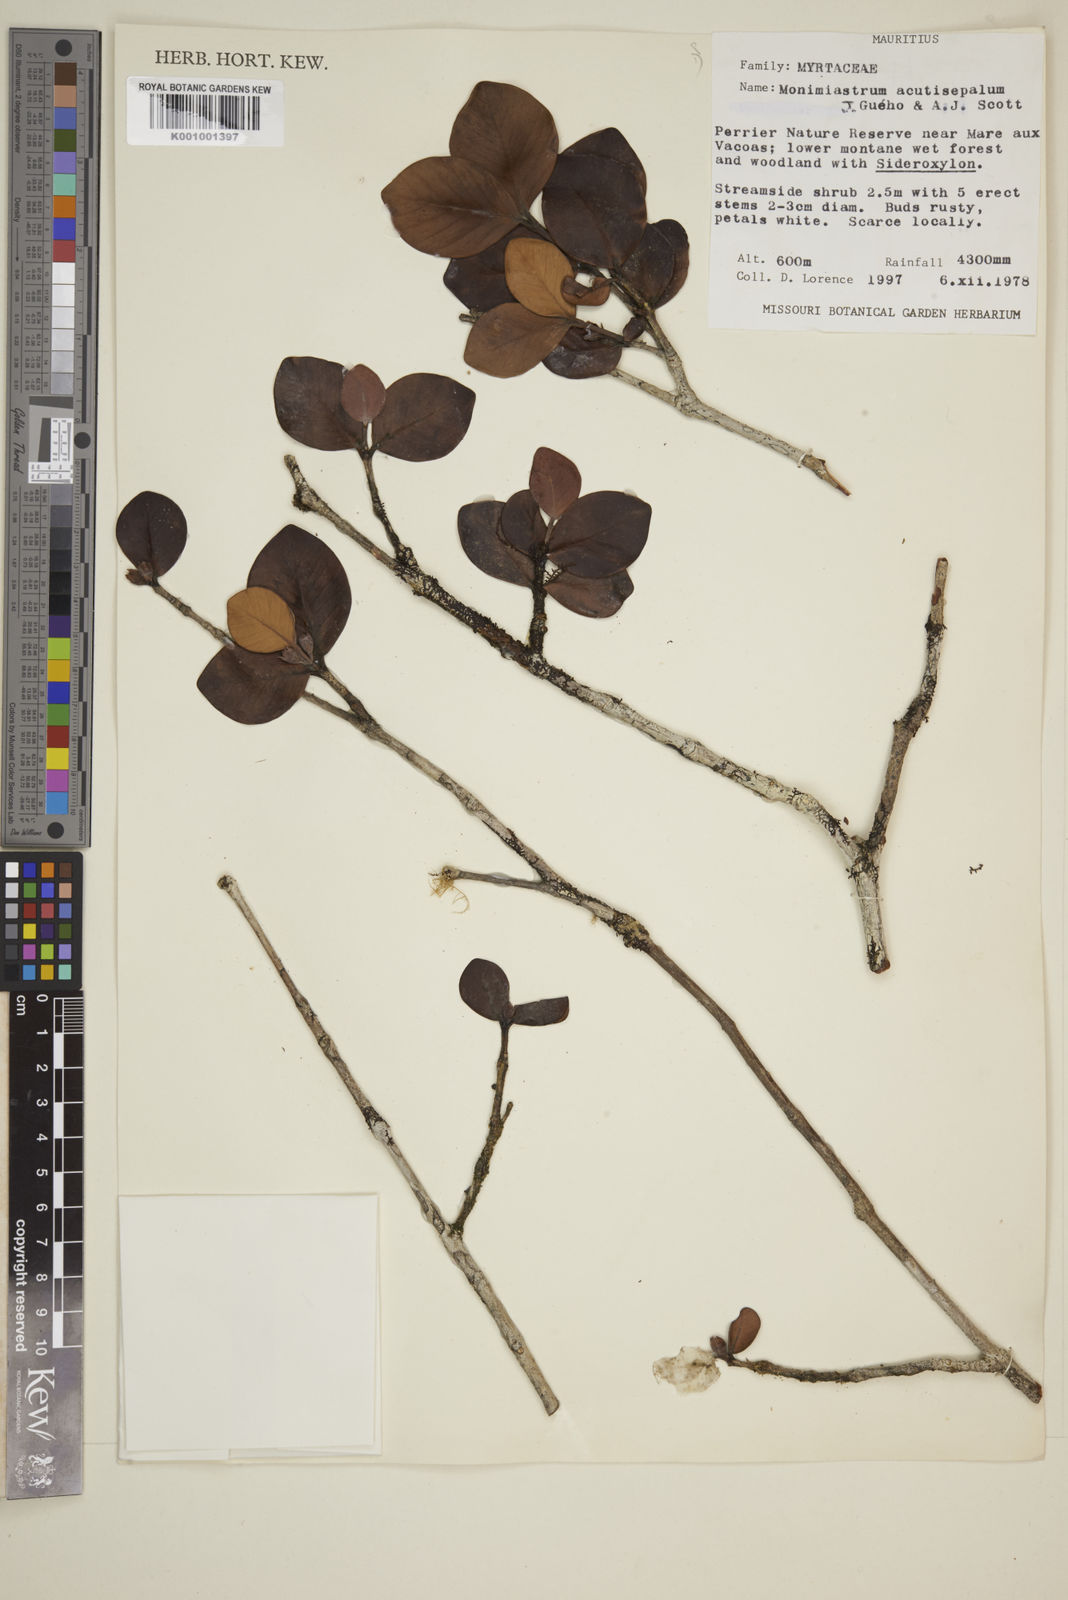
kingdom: Plantae
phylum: Tracheophyta
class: Magnoliopsida
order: Myrtales
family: Myrtaceae
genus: Eugenia
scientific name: Eugenia petrinensis
